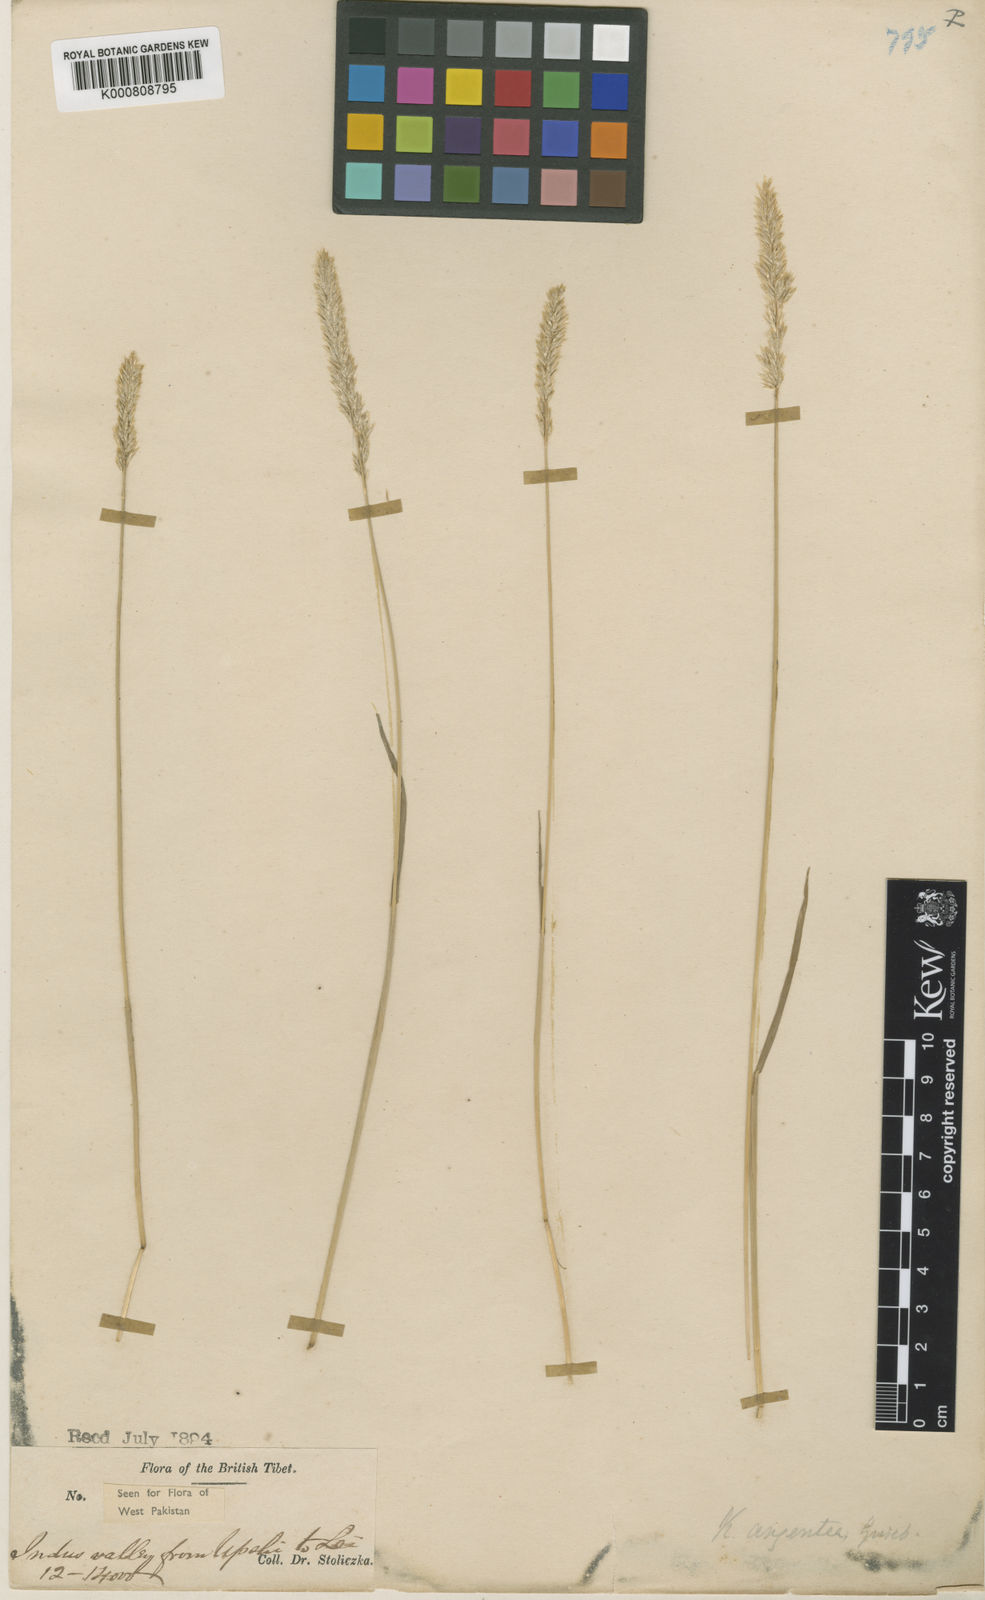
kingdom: Plantae
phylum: Tracheophyta
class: Liliopsida
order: Poales
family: Poaceae
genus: Koeleria
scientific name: Koeleria argentea
